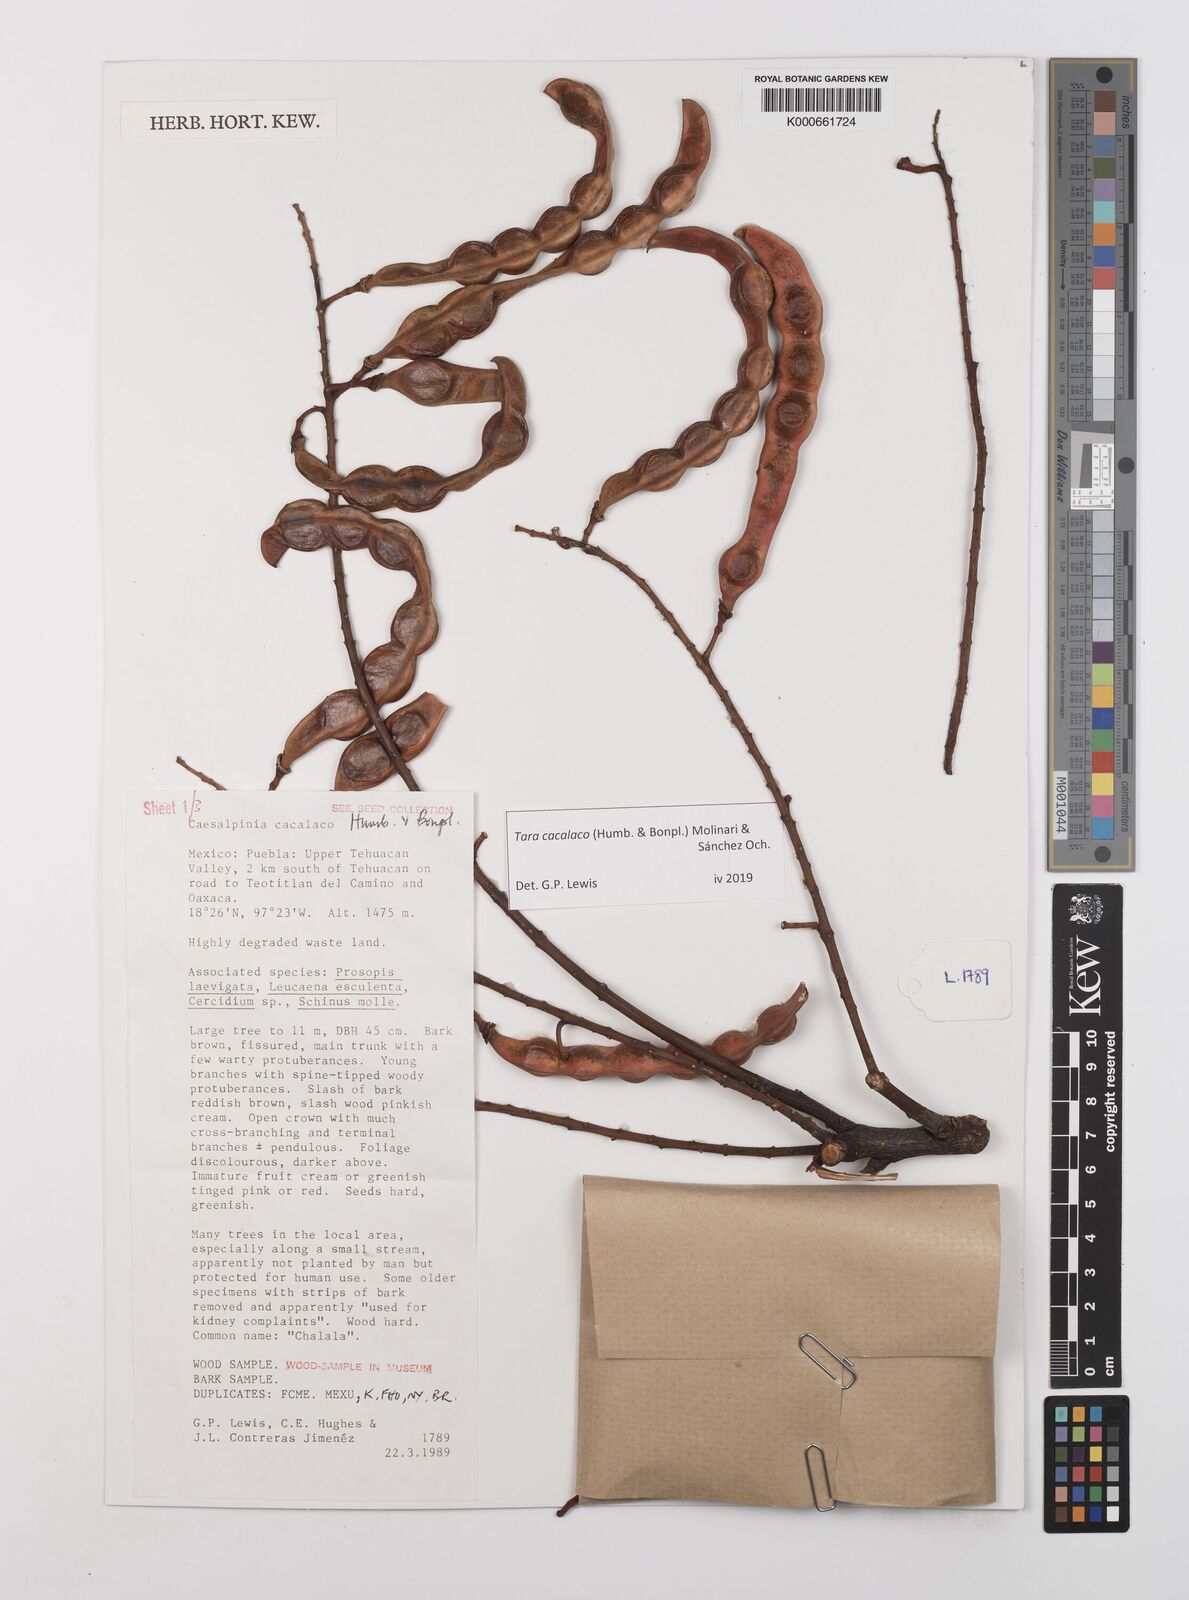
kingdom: Plantae
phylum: Tracheophyta
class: Magnoliopsida
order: Fabales
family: Fabaceae
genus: Tara
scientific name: Tara cacalaco
